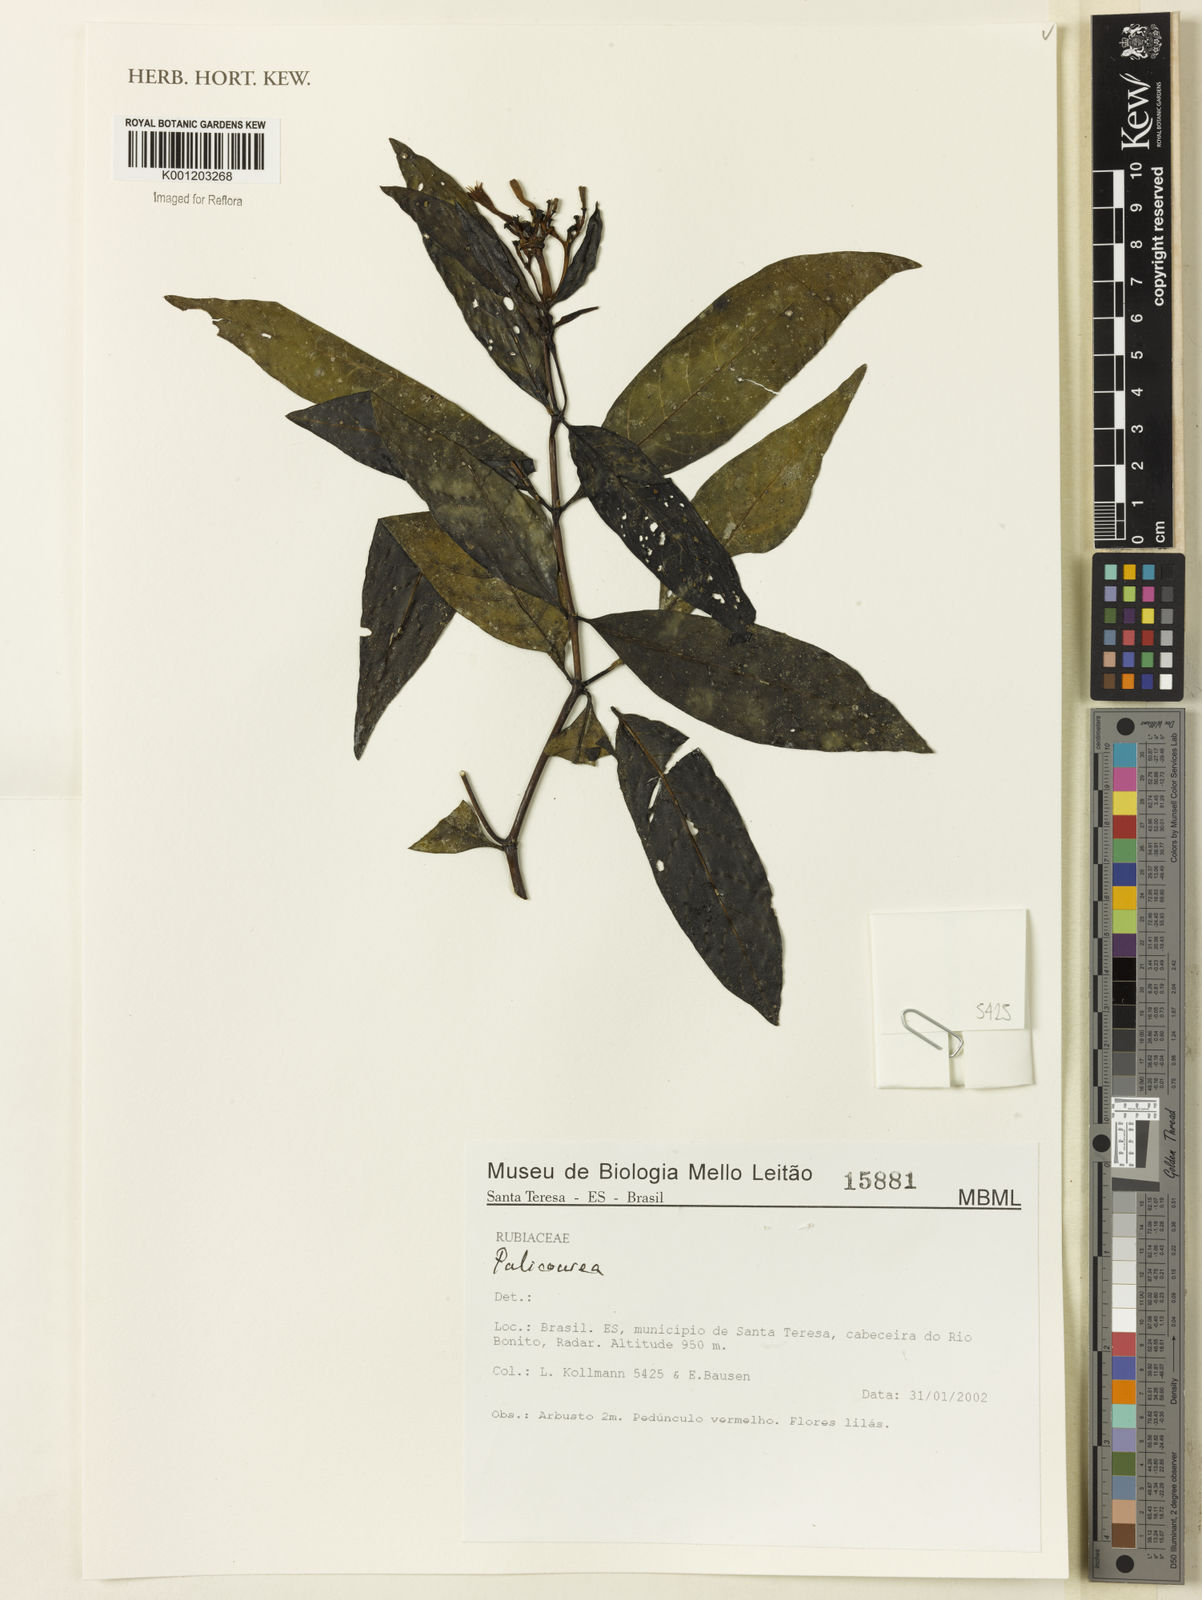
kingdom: Plantae
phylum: Tracheophyta
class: Magnoliopsida
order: Gentianales
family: Rubiaceae
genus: Palicourea
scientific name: Palicourea
